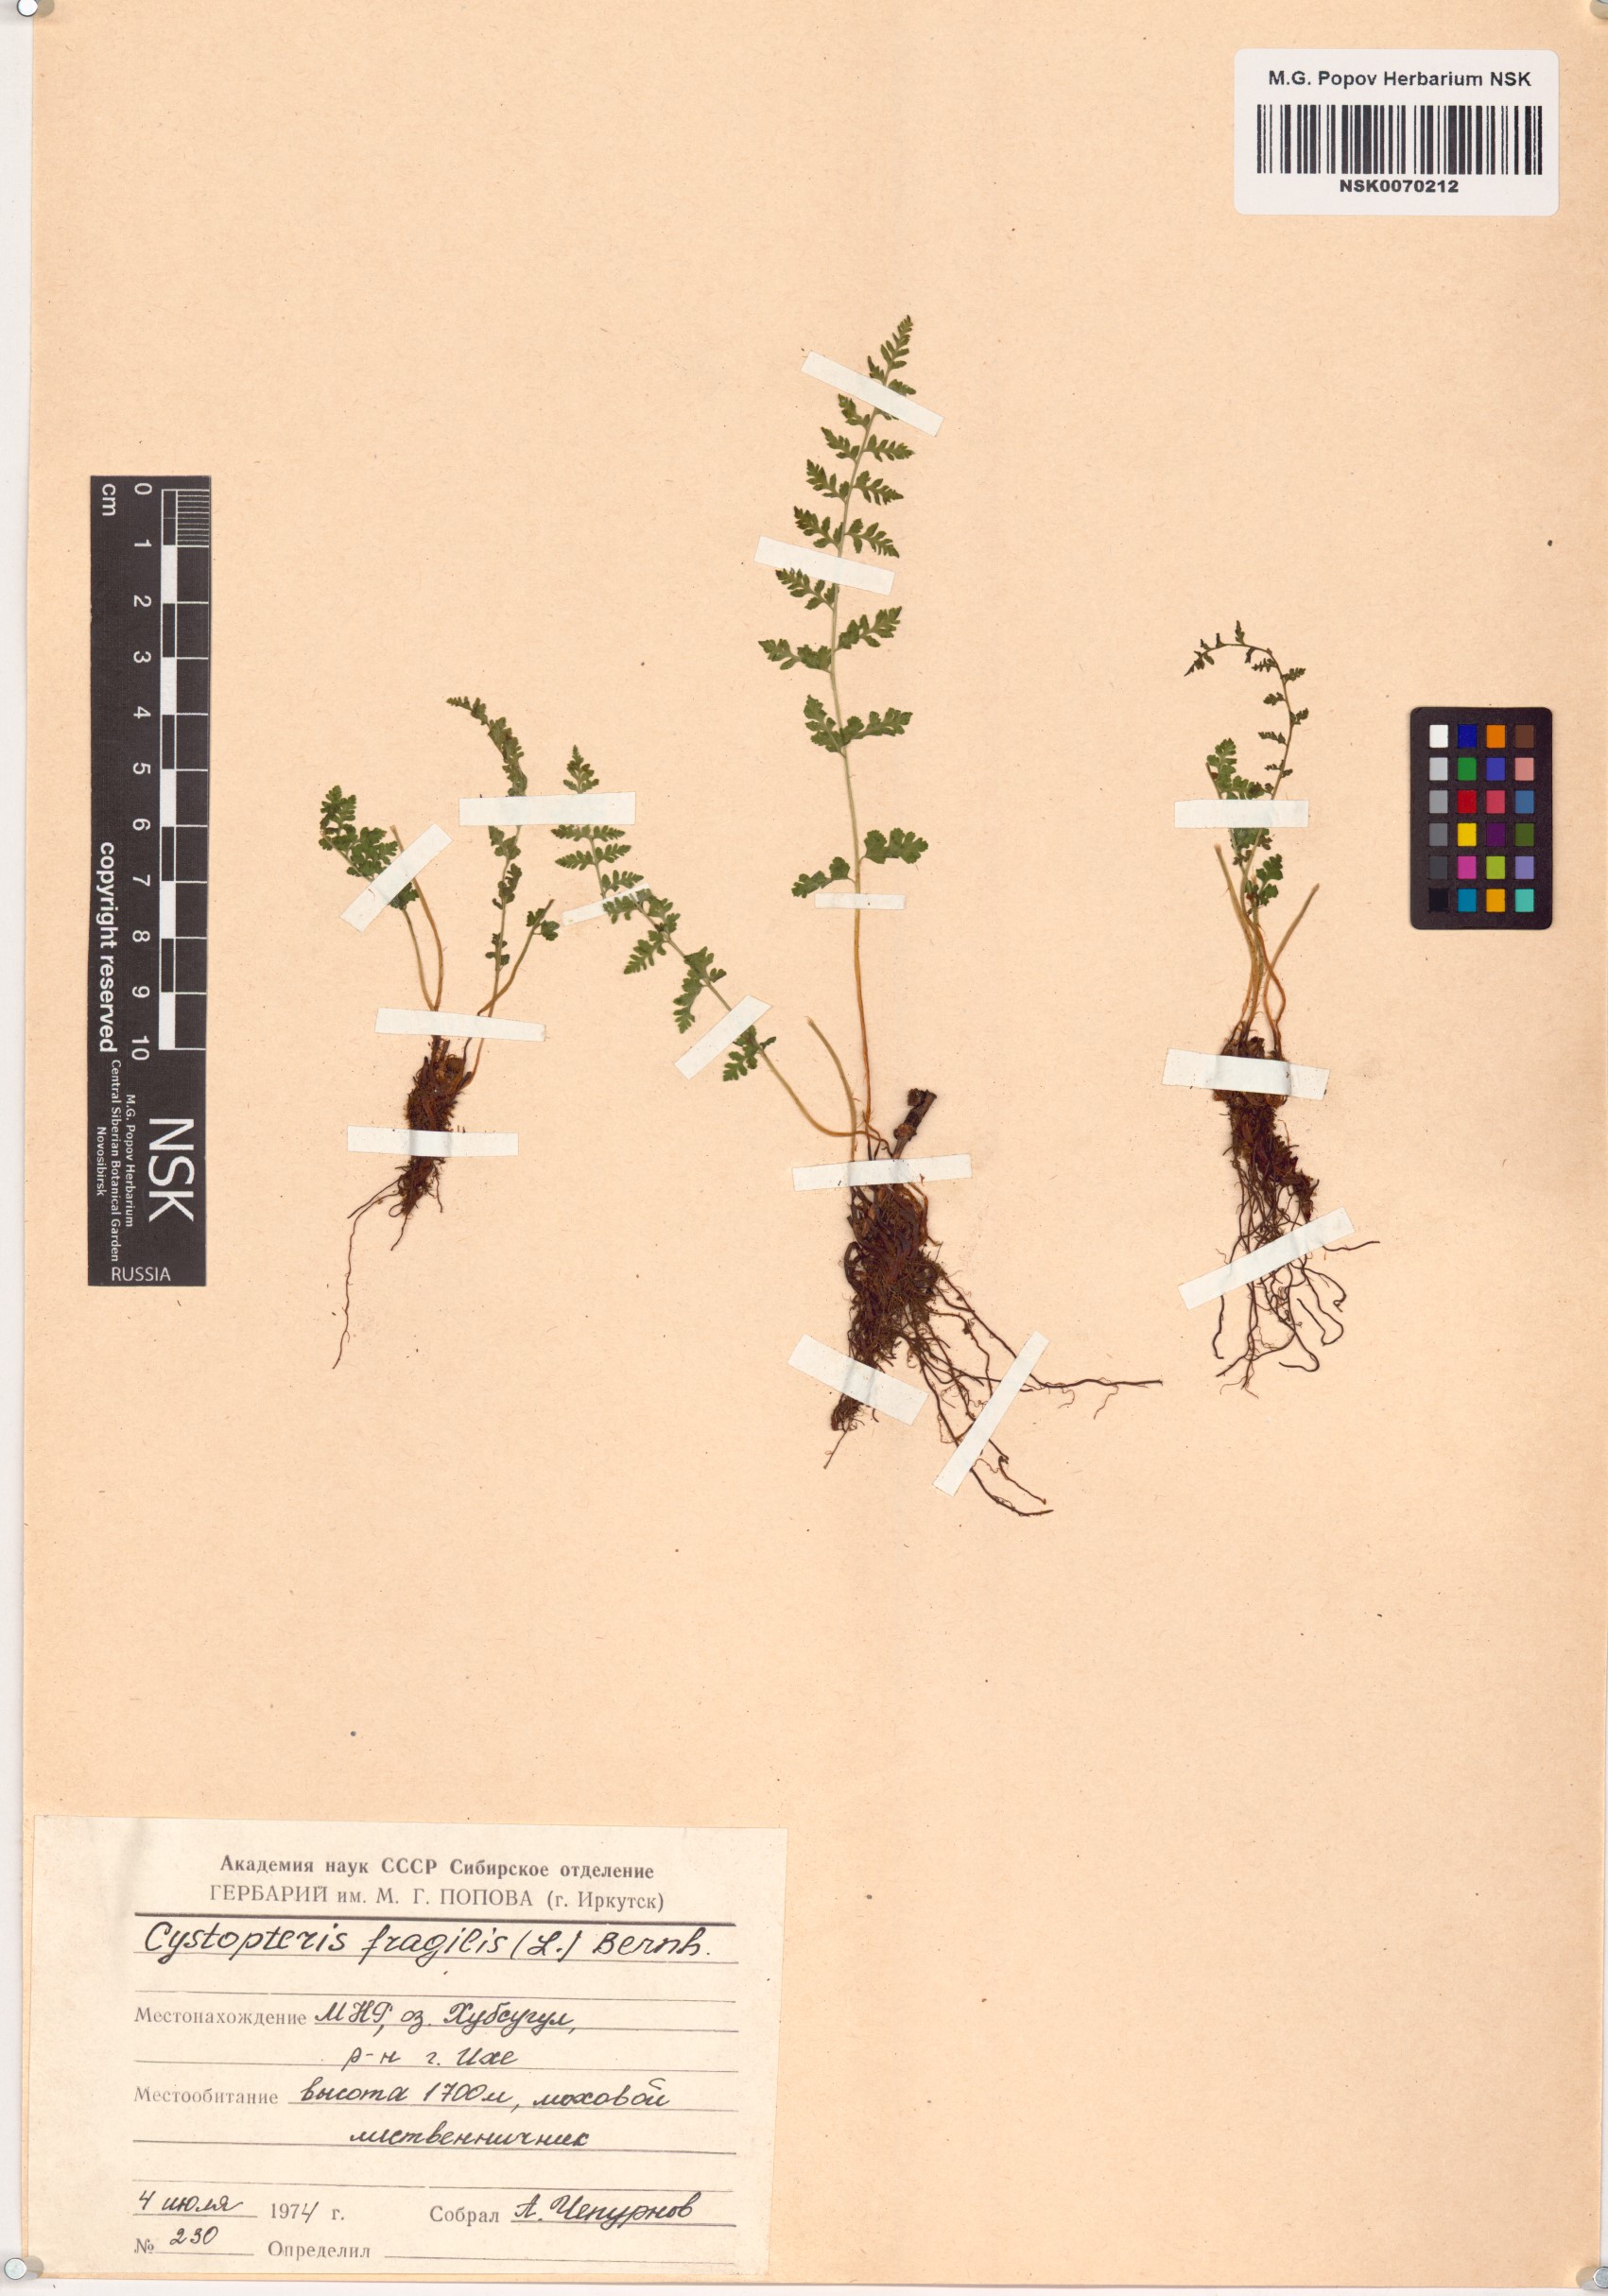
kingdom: Plantae
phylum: Tracheophyta
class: Polypodiopsida
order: Polypodiales
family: Cystopteridaceae
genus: Cystopteris
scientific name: Cystopteris fragilis
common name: Brittle bladder fern
